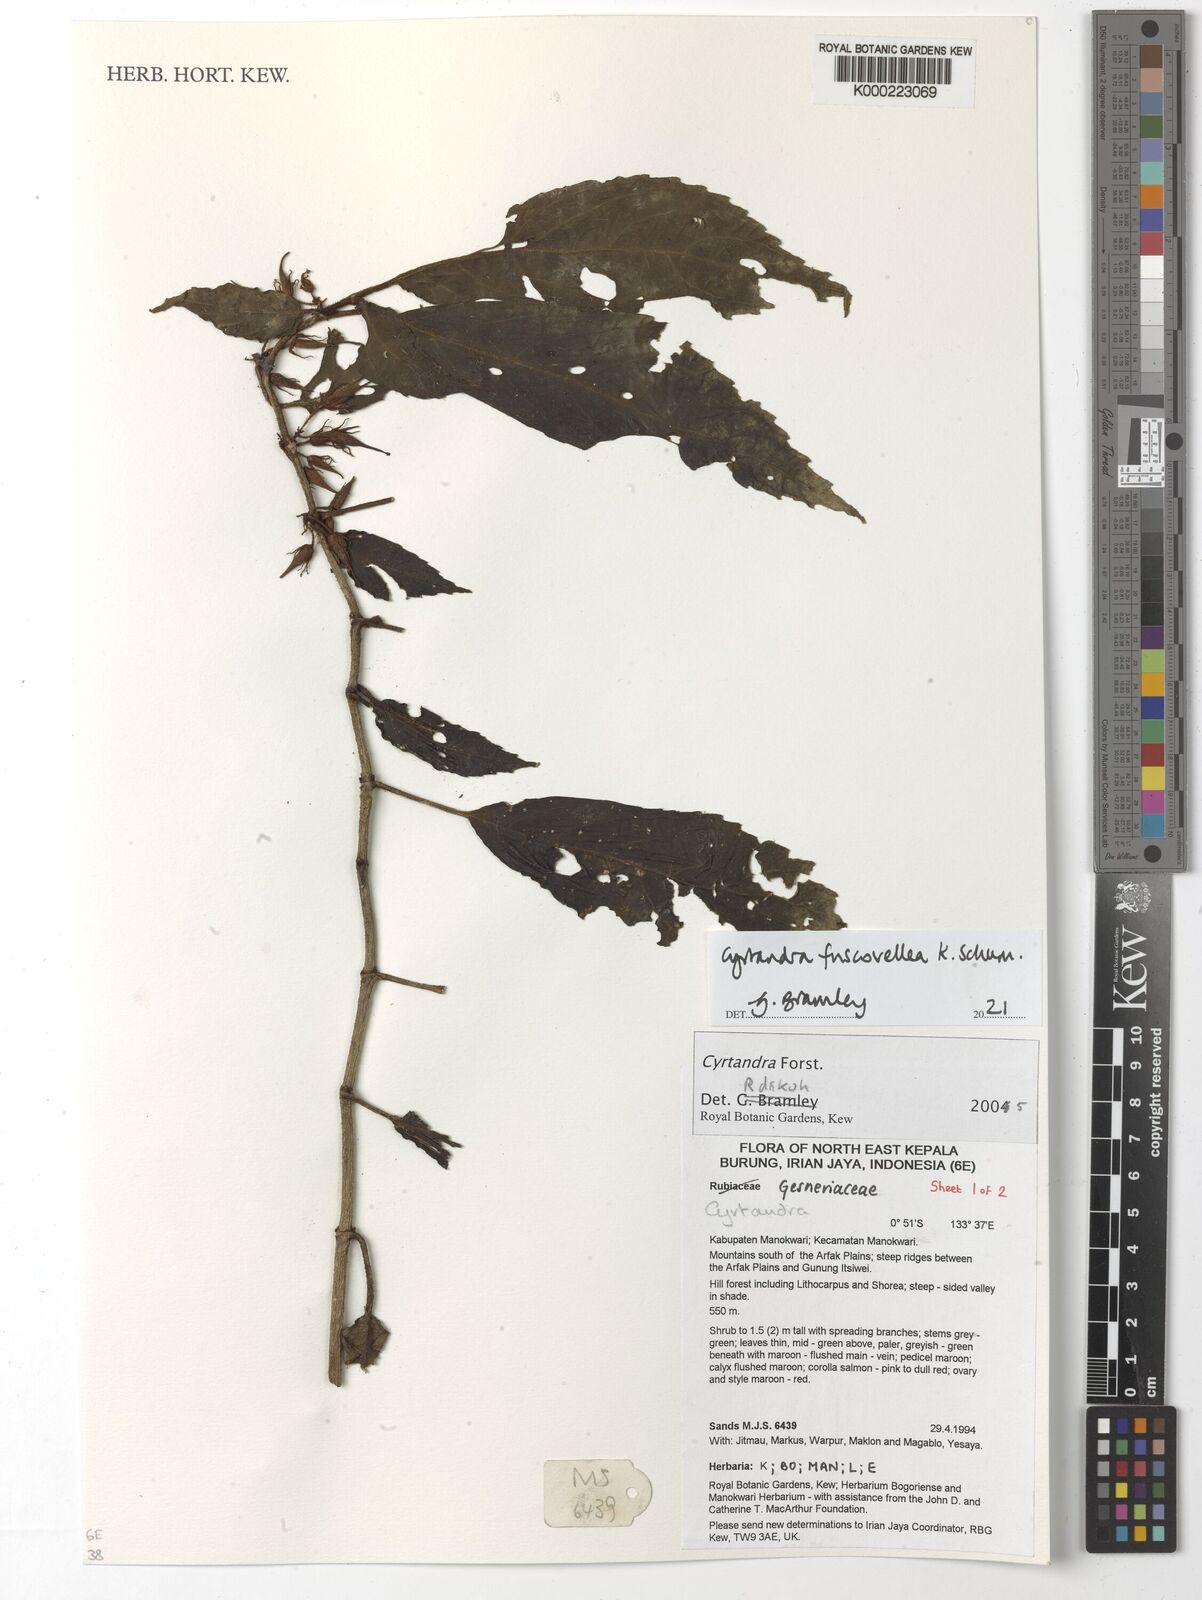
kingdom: Plantae
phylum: Tracheophyta
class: Magnoliopsida
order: Lamiales
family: Gesneriaceae
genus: Cyrtandra
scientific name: Cyrtandra
